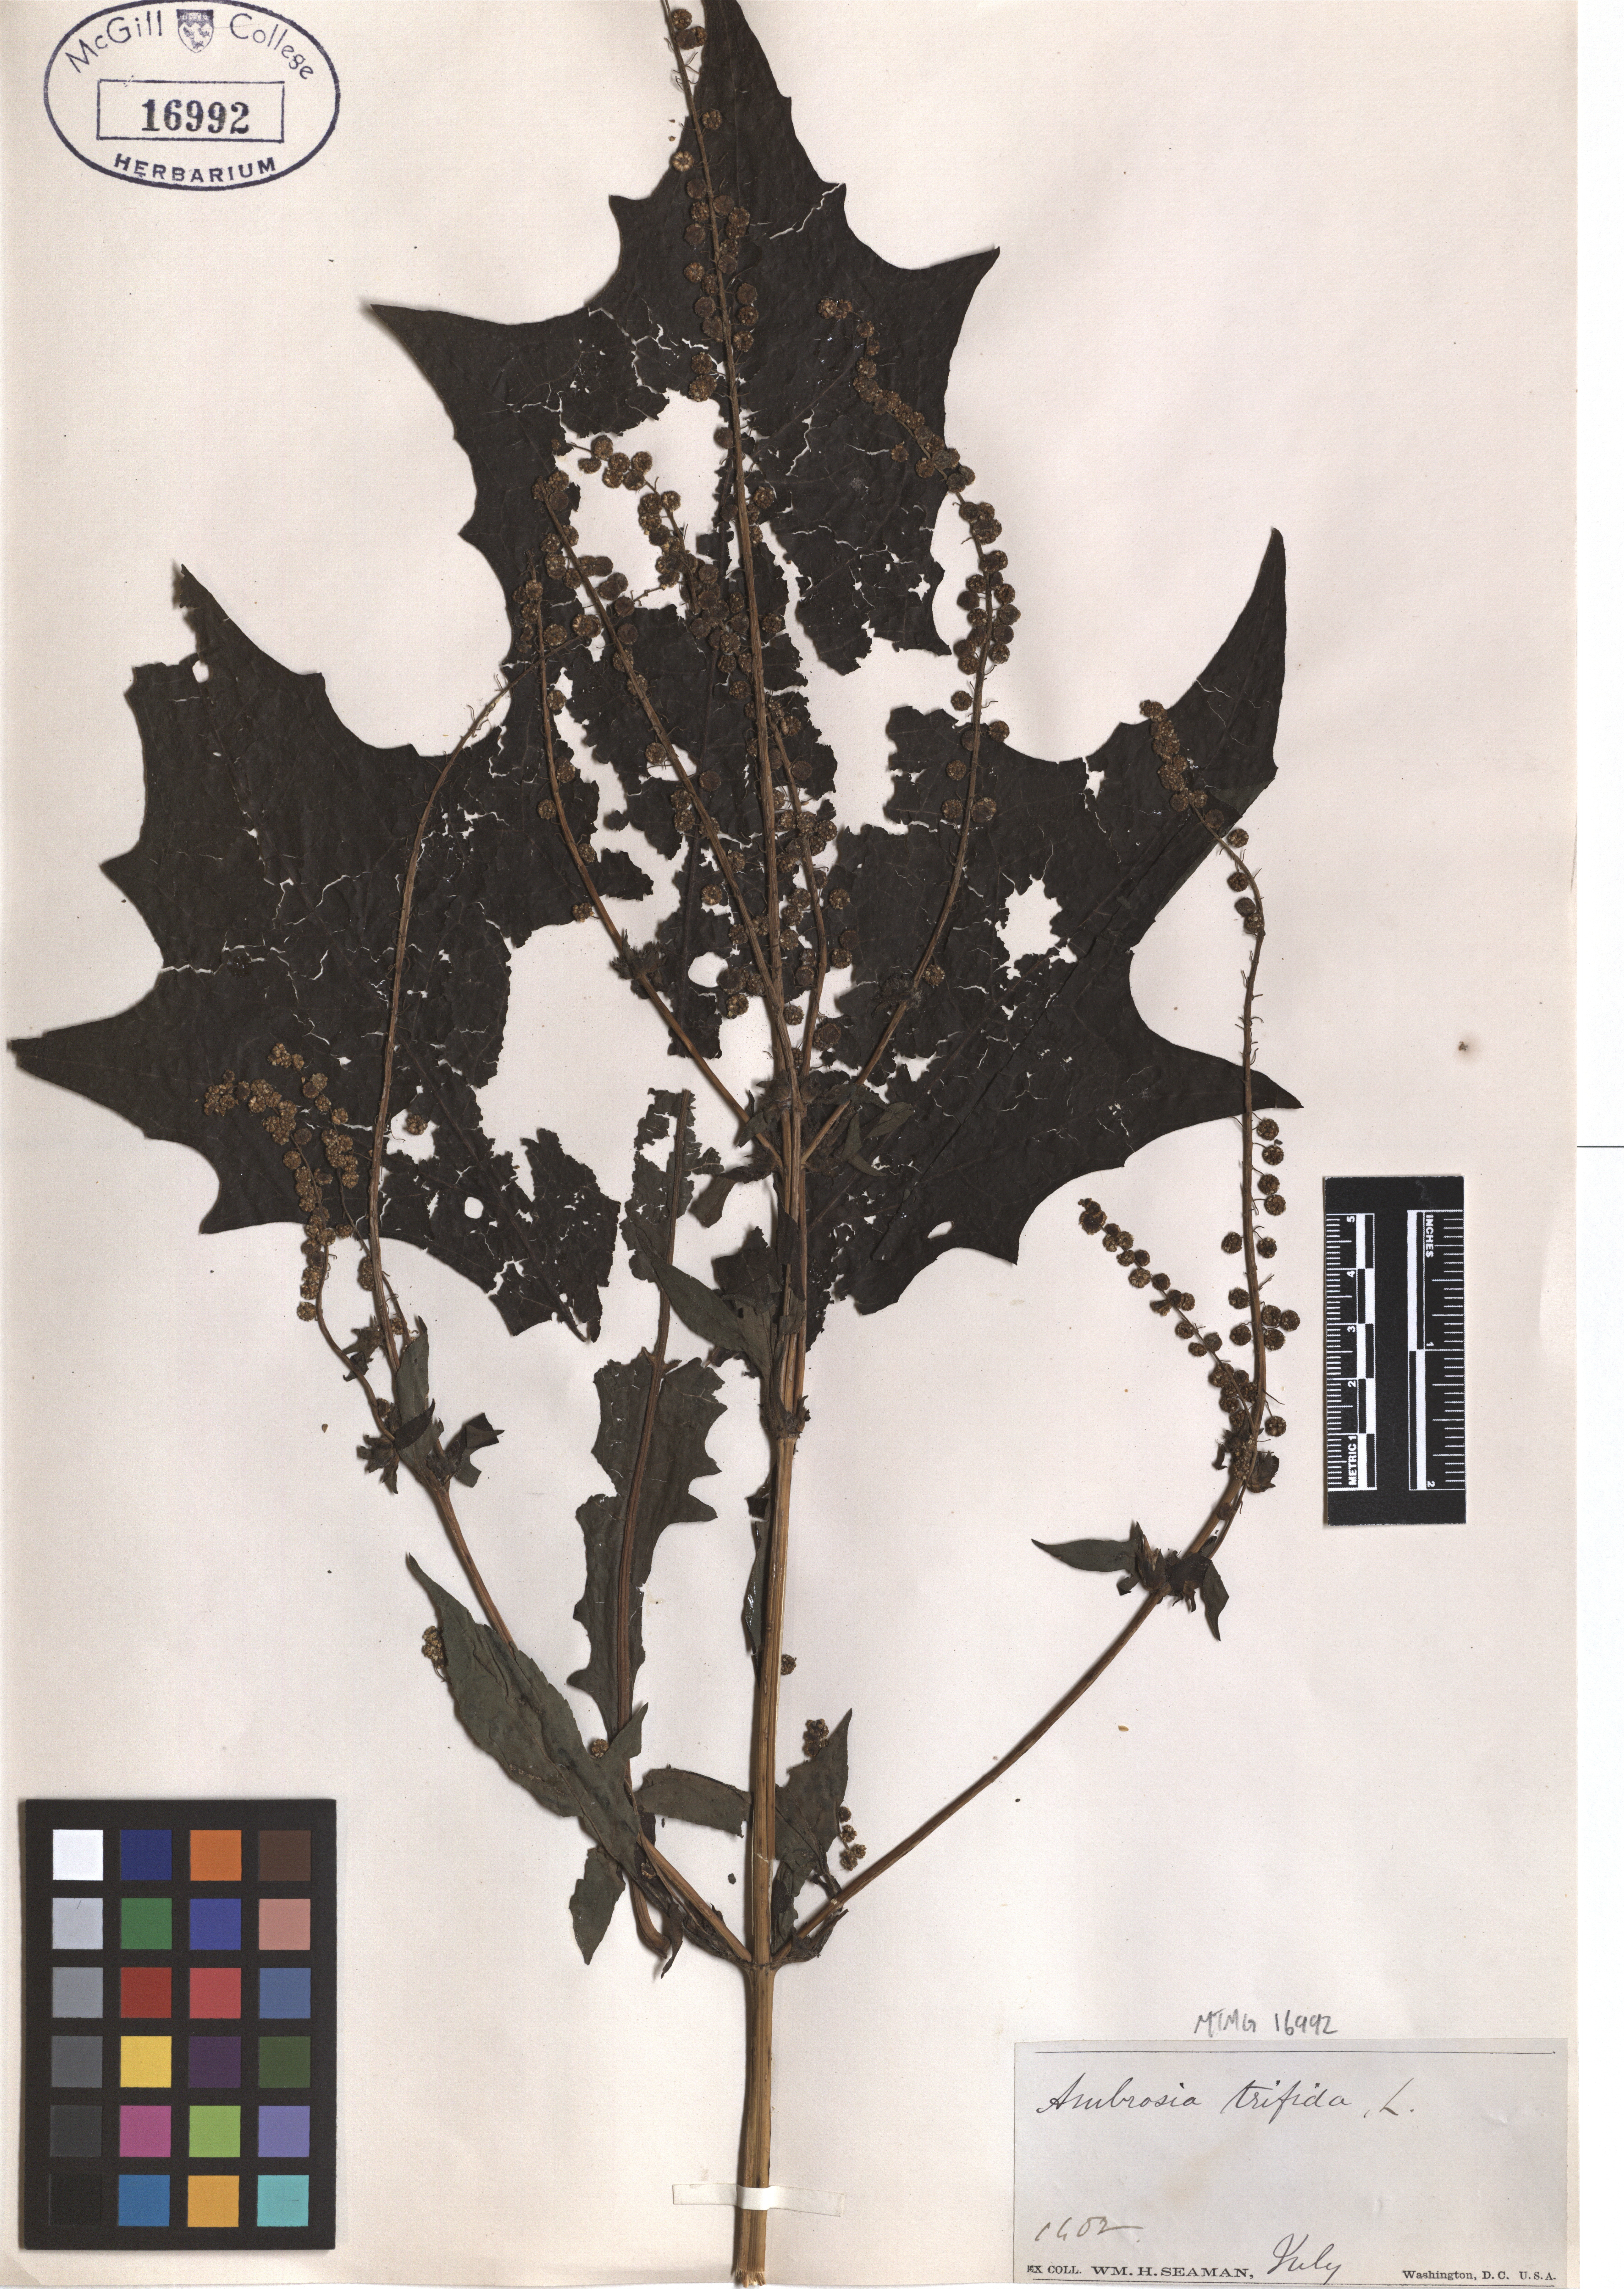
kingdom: Plantae
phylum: Tracheophyta
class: Magnoliopsida
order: Asterales
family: Asteraceae
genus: Ambrosia
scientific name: Ambrosia trifida
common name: Giant ragweed
